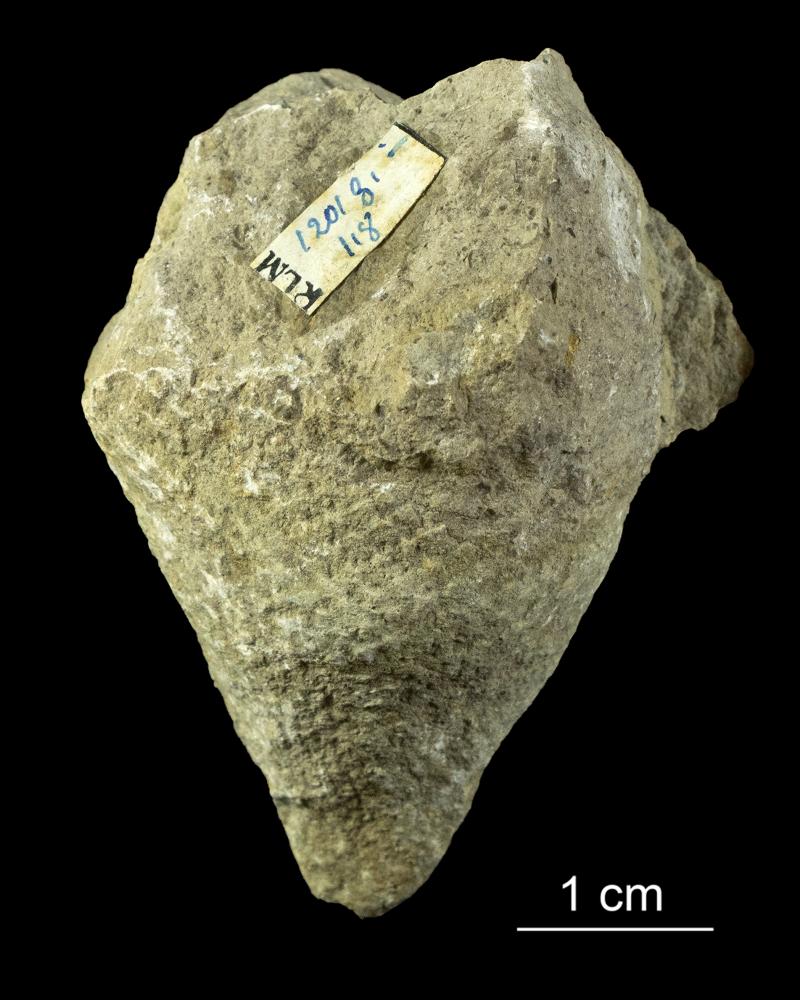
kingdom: Plantae
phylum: Chlorophyta
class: Chlorophyceae
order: Receptaculitales
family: Receptaculitaceae
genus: Ischadites
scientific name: Ischadites
